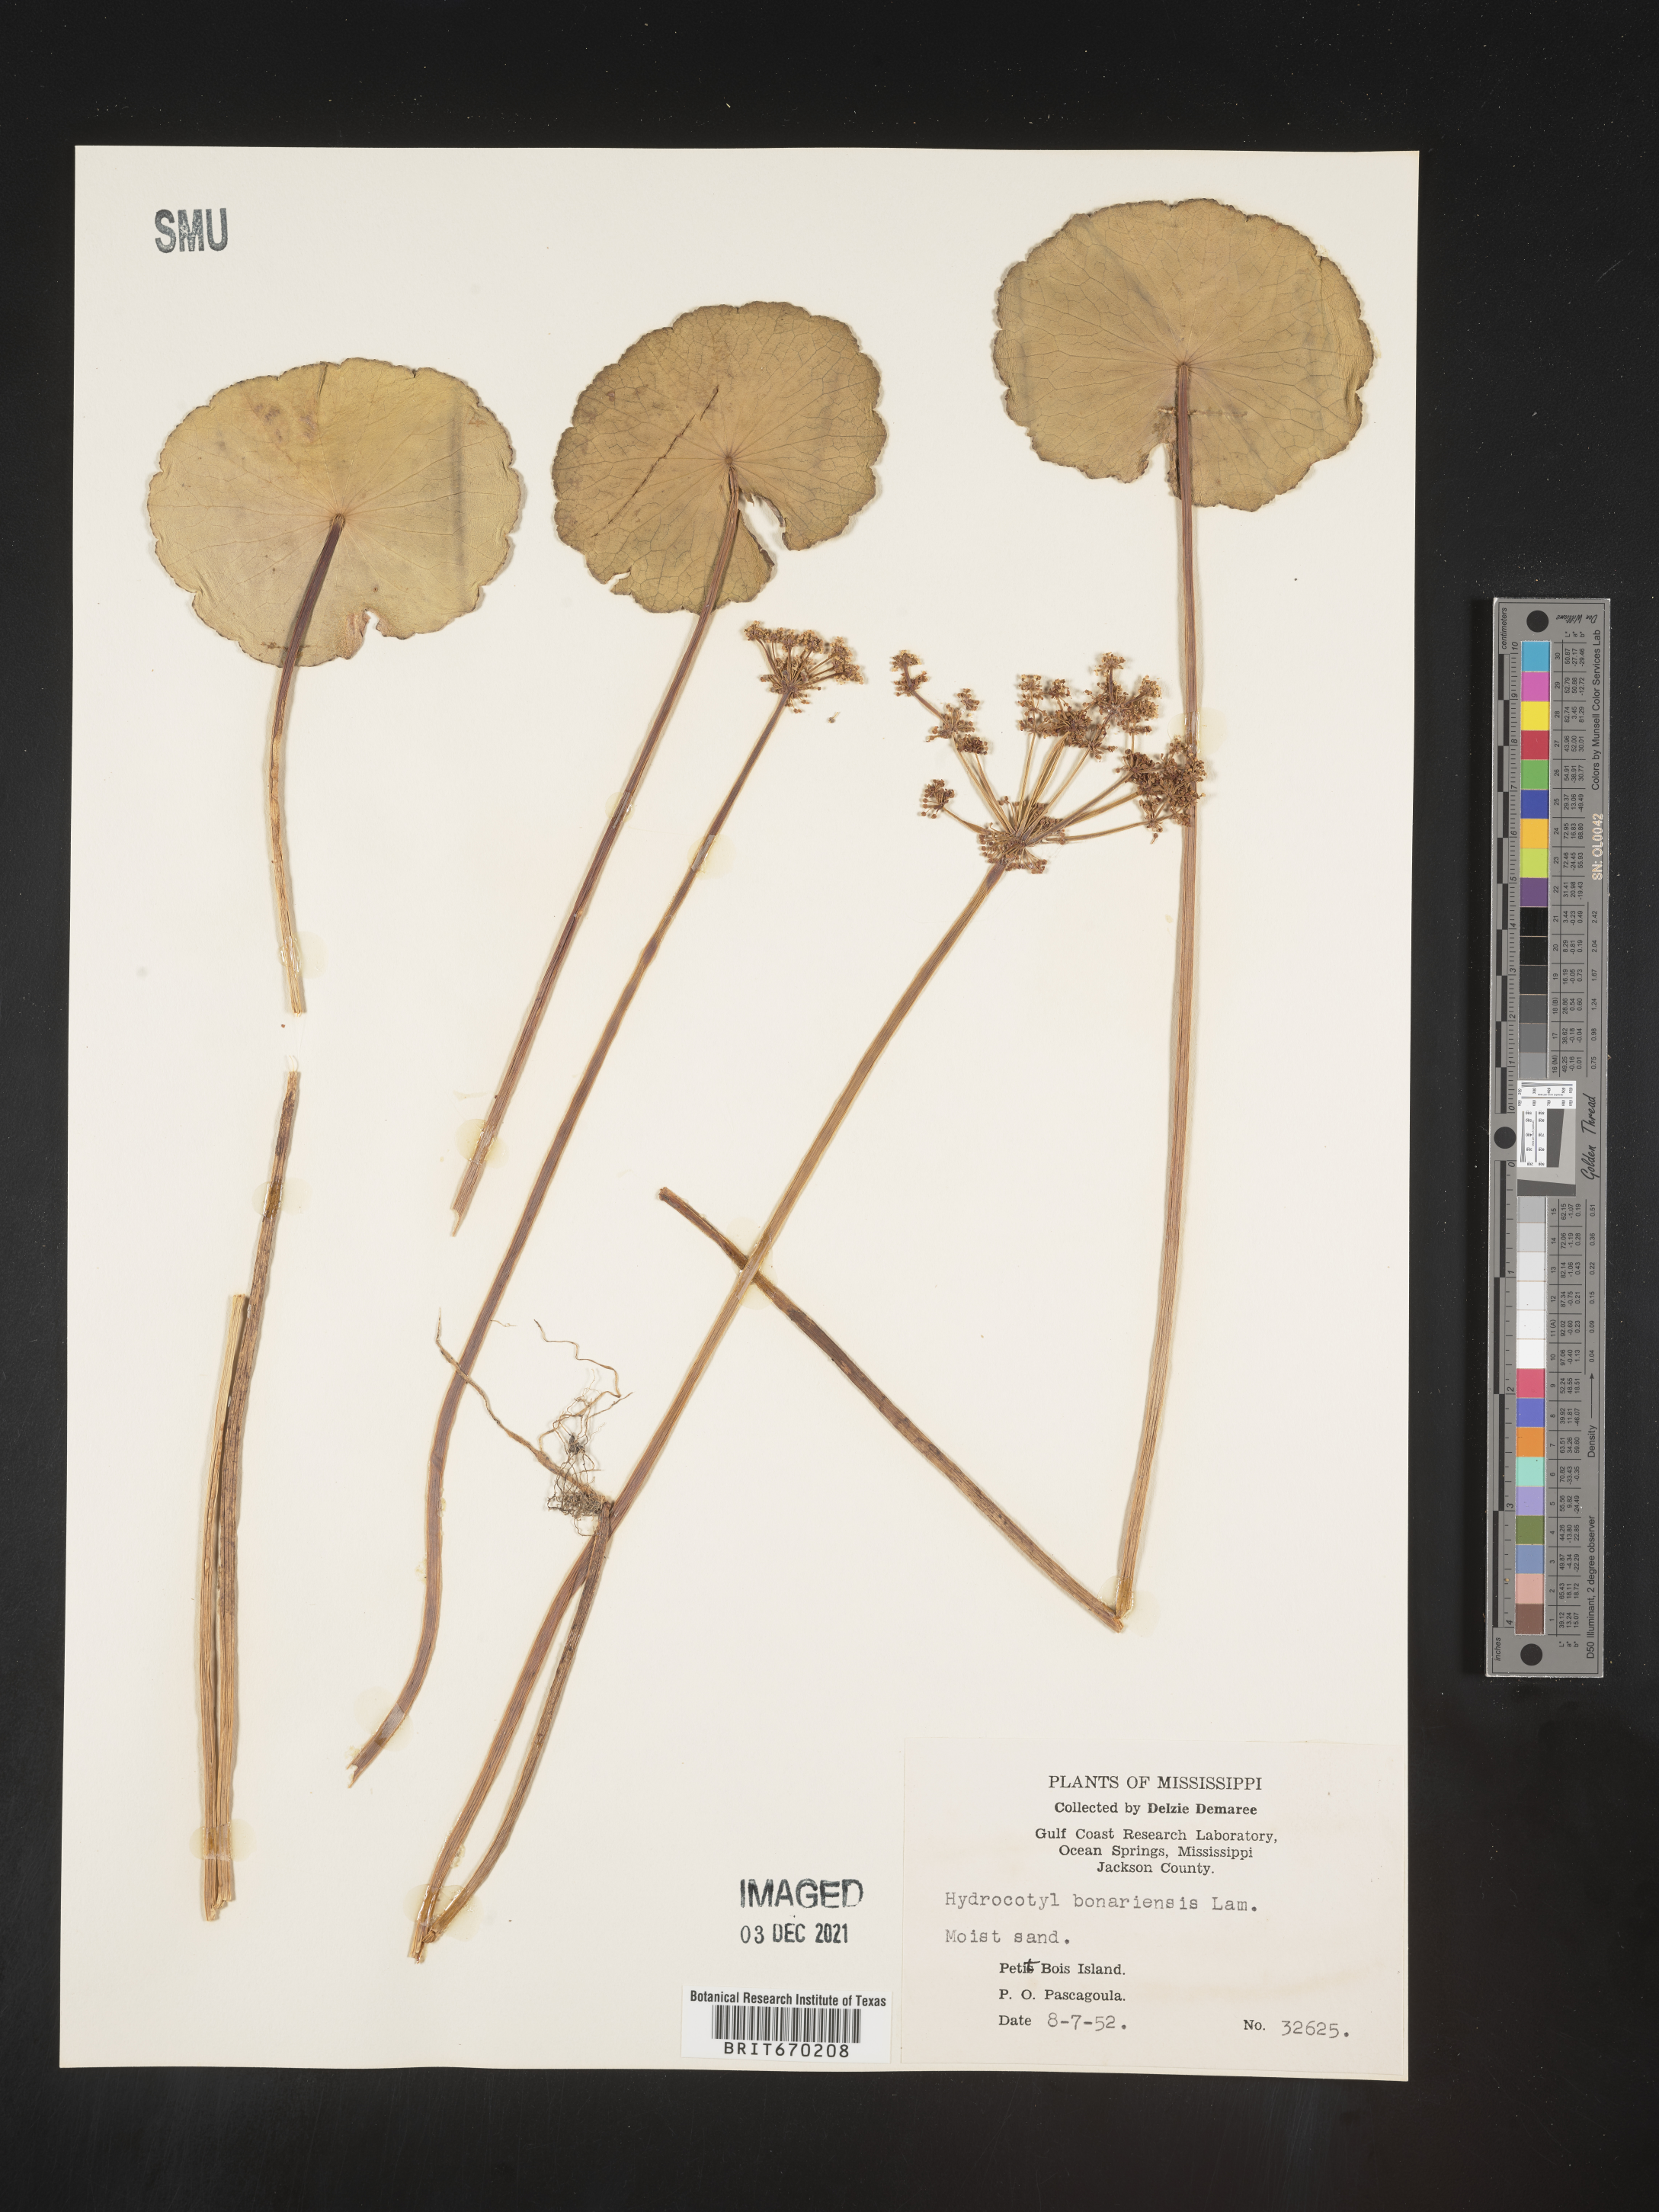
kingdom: Plantae
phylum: Tracheophyta
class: Magnoliopsida
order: Apiales
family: Araliaceae
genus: Hydrocotyle
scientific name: Hydrocotyle bonariensis
